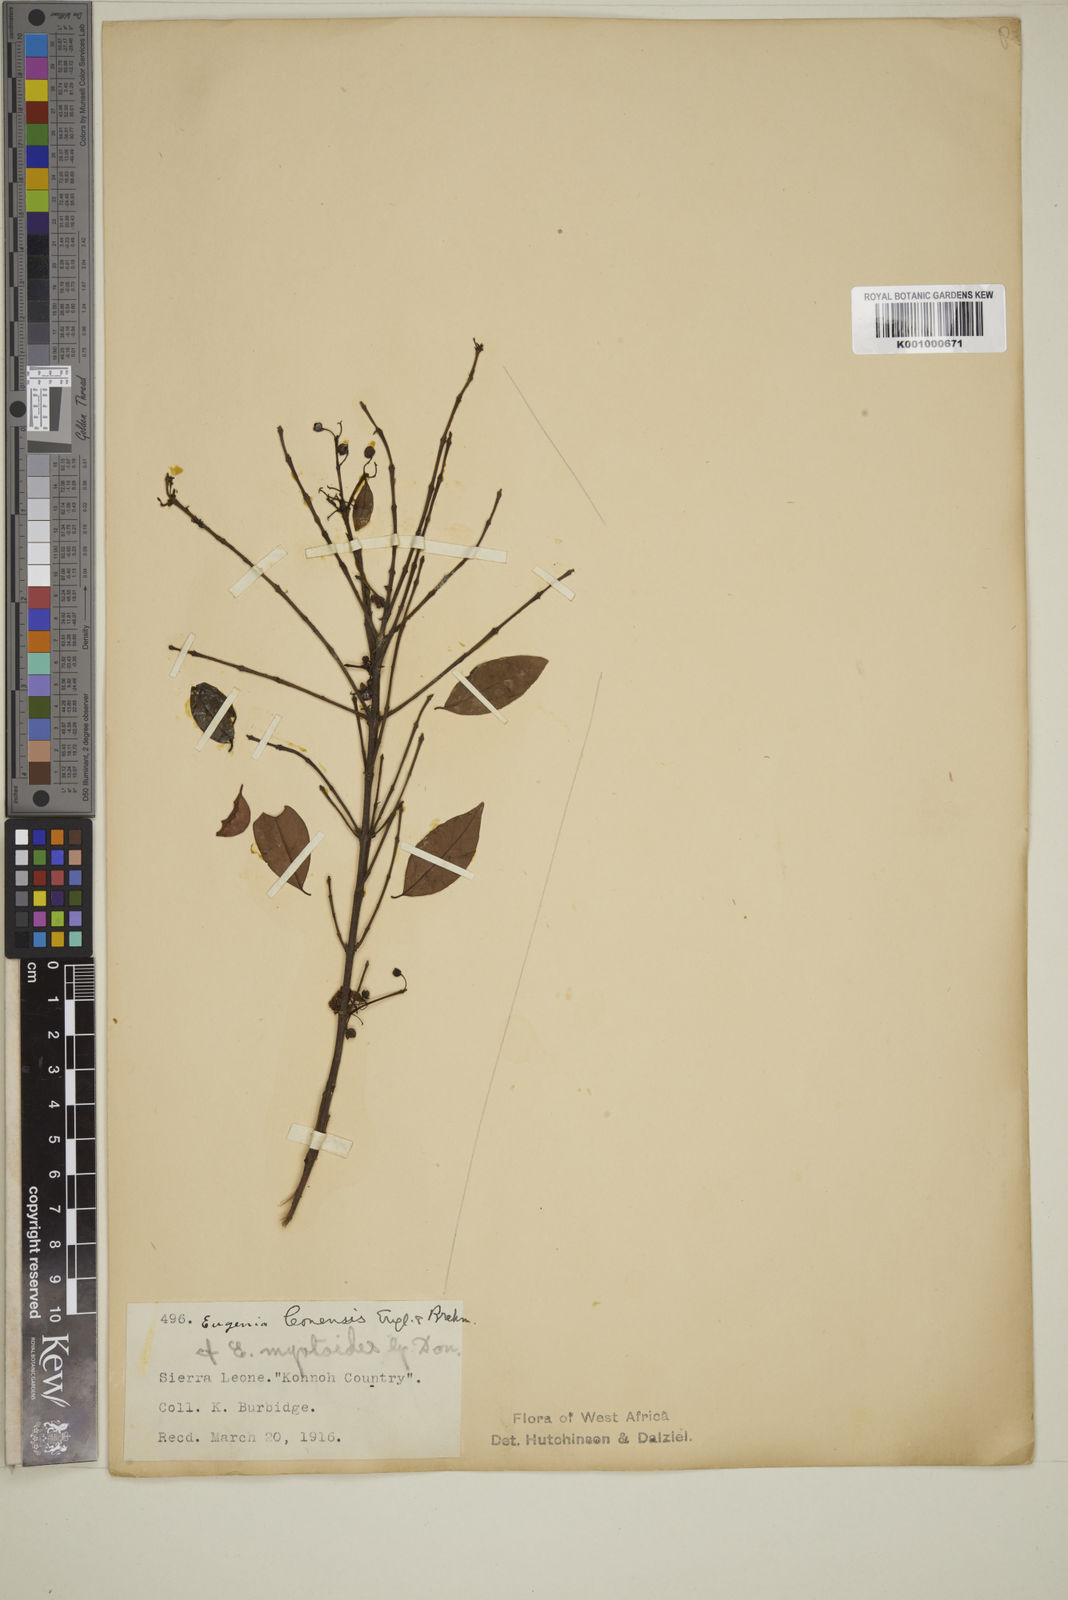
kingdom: Plantae
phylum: Tracheophyta
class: Magnoliopsida
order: Myrtales
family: Myrtaceae
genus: Eugenia
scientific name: Eugenia leonensis
